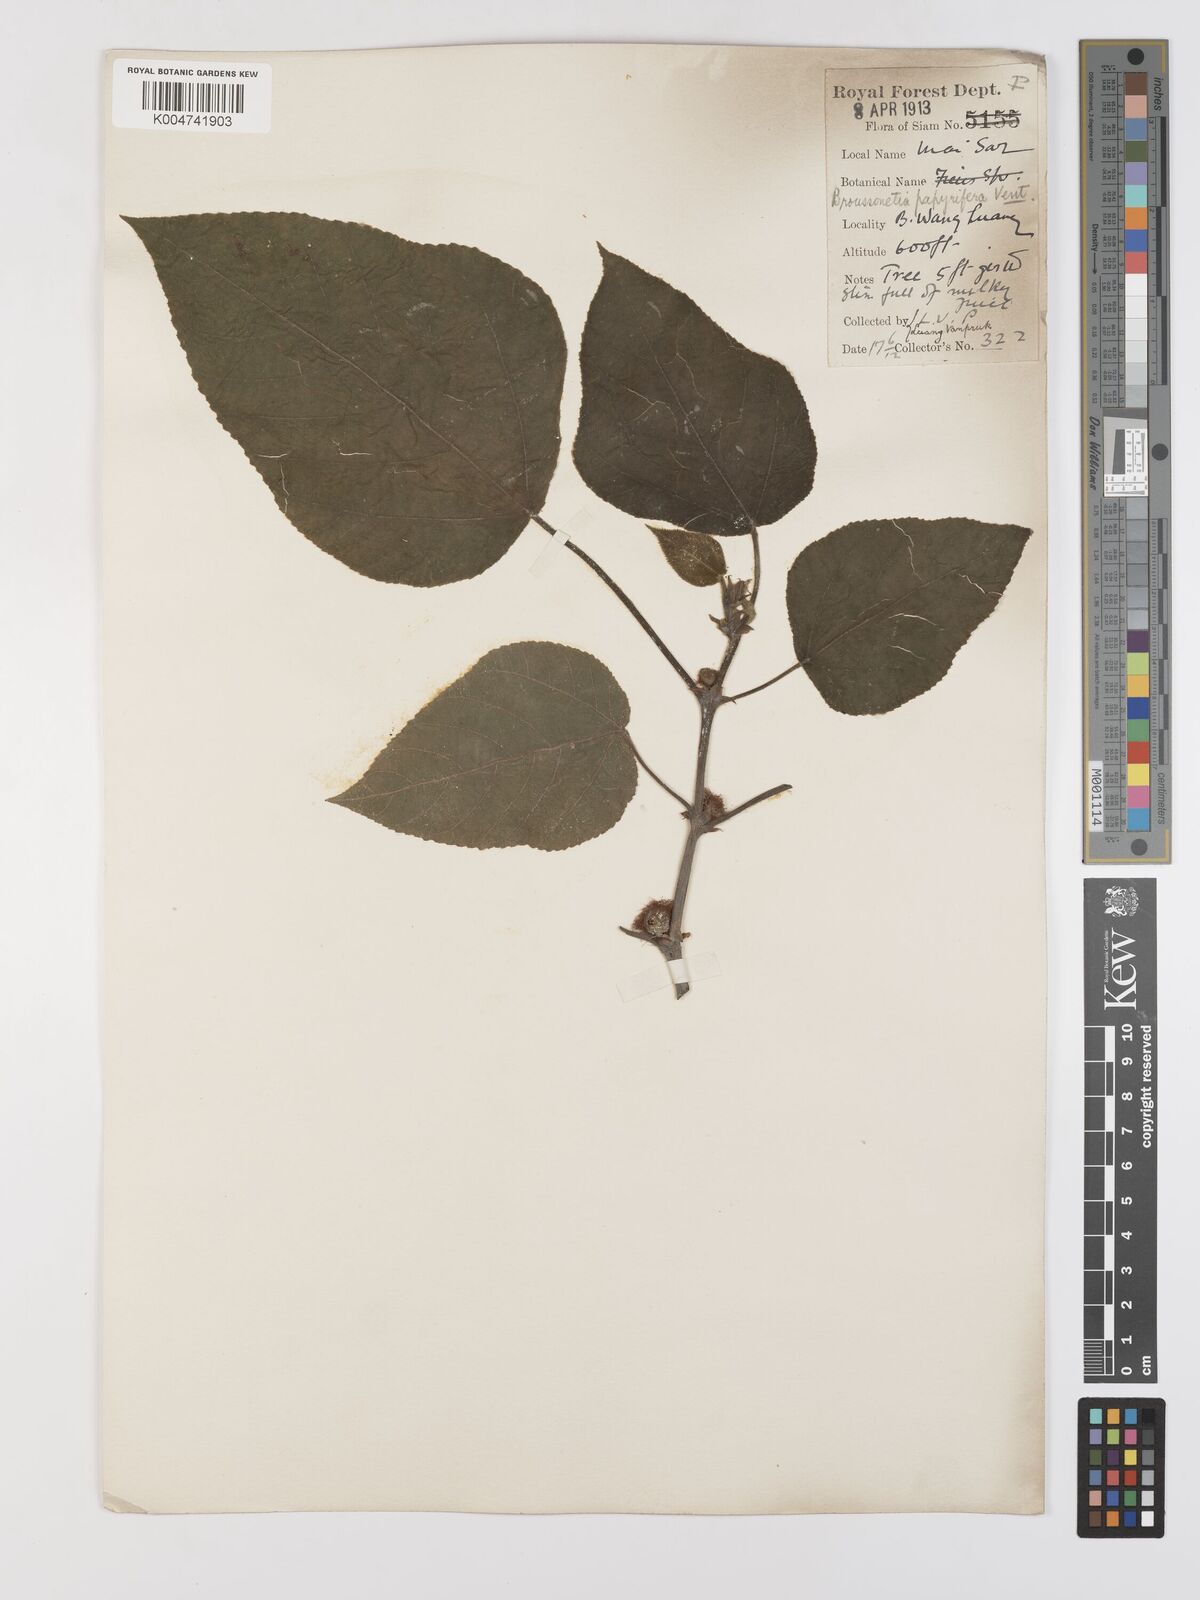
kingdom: Plantae
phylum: Tracheophyta
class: Magnoliopsida
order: Rosales
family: Moraceae
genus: Broussonetia
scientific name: Broussonetia papyrifera
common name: Paper mulberry
